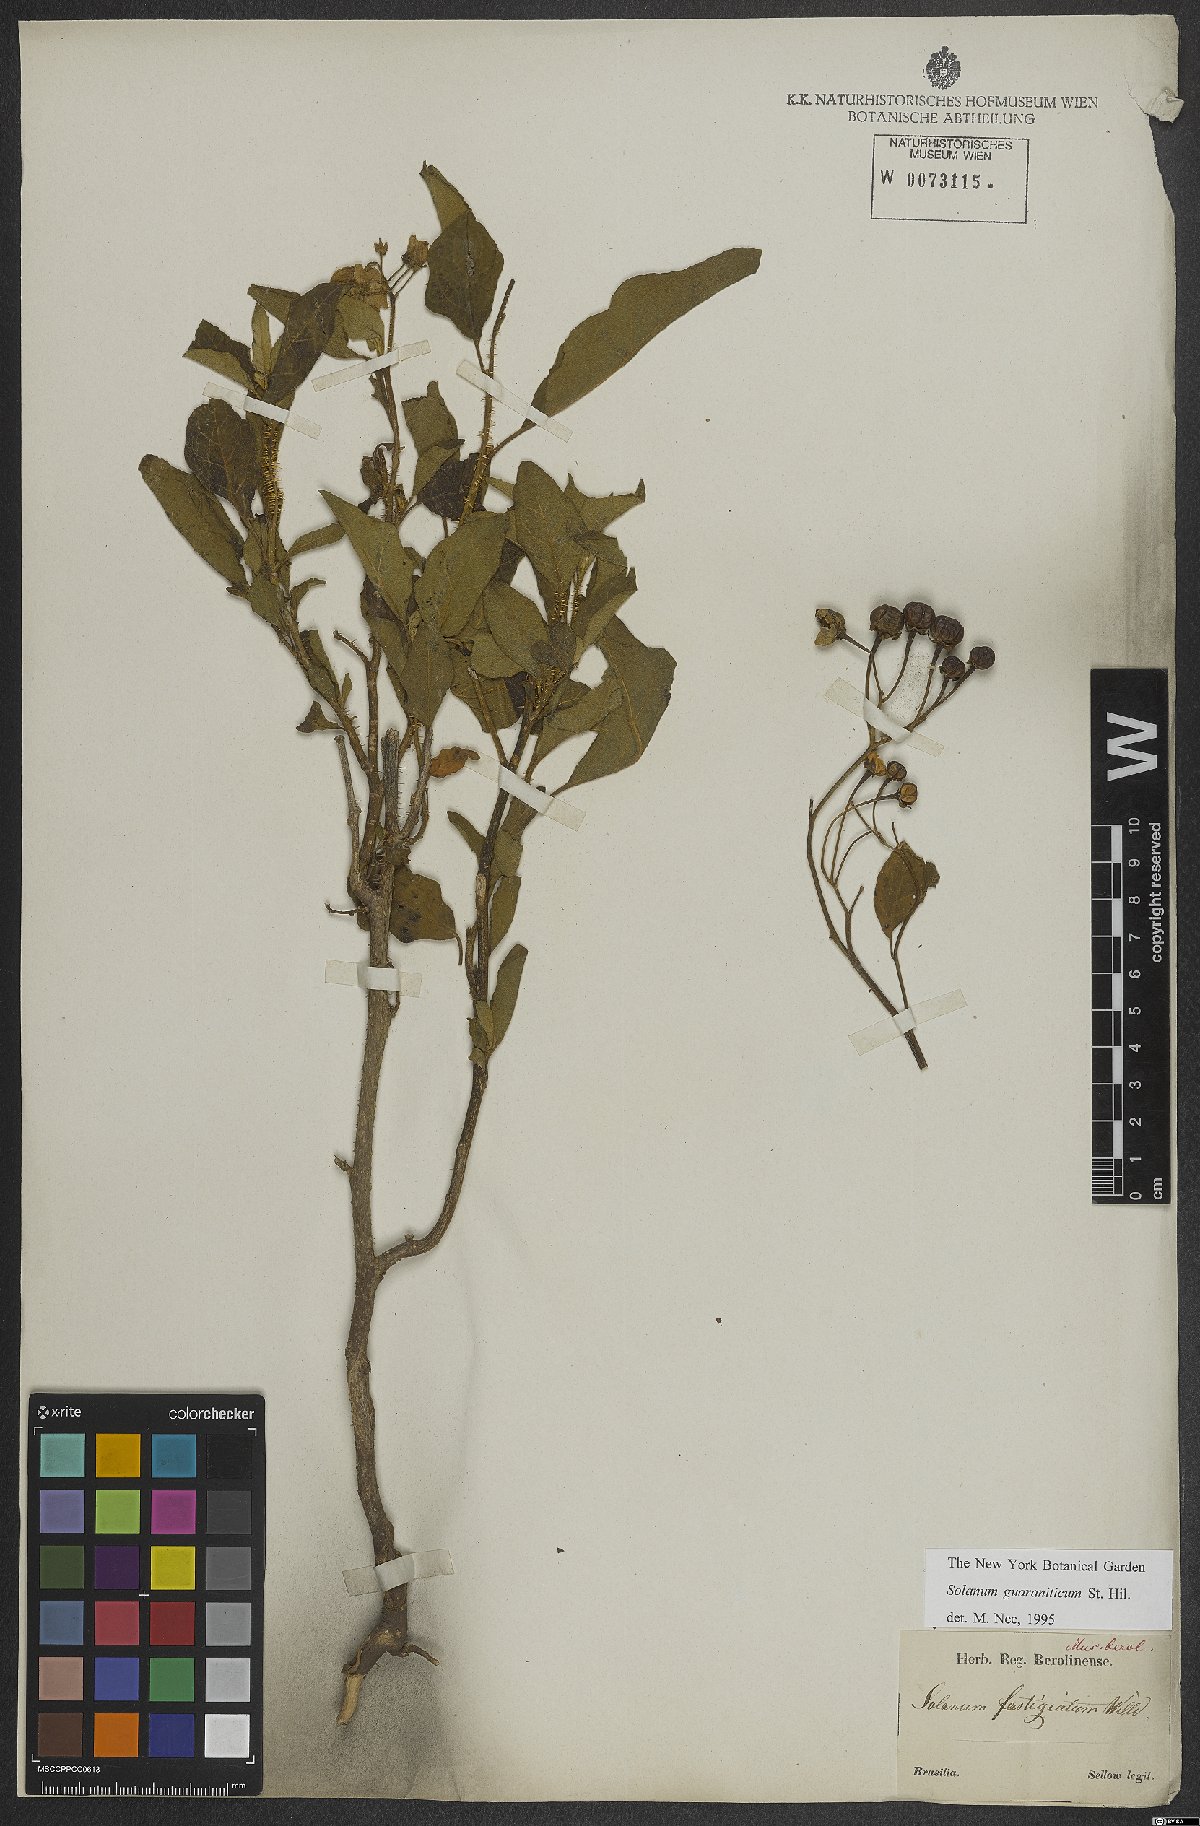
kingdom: Plantae
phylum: Tracheophyta
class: Magnoliopsida
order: Solanales
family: Solanaceae
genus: Solanum
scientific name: Solanum guaraniticum
